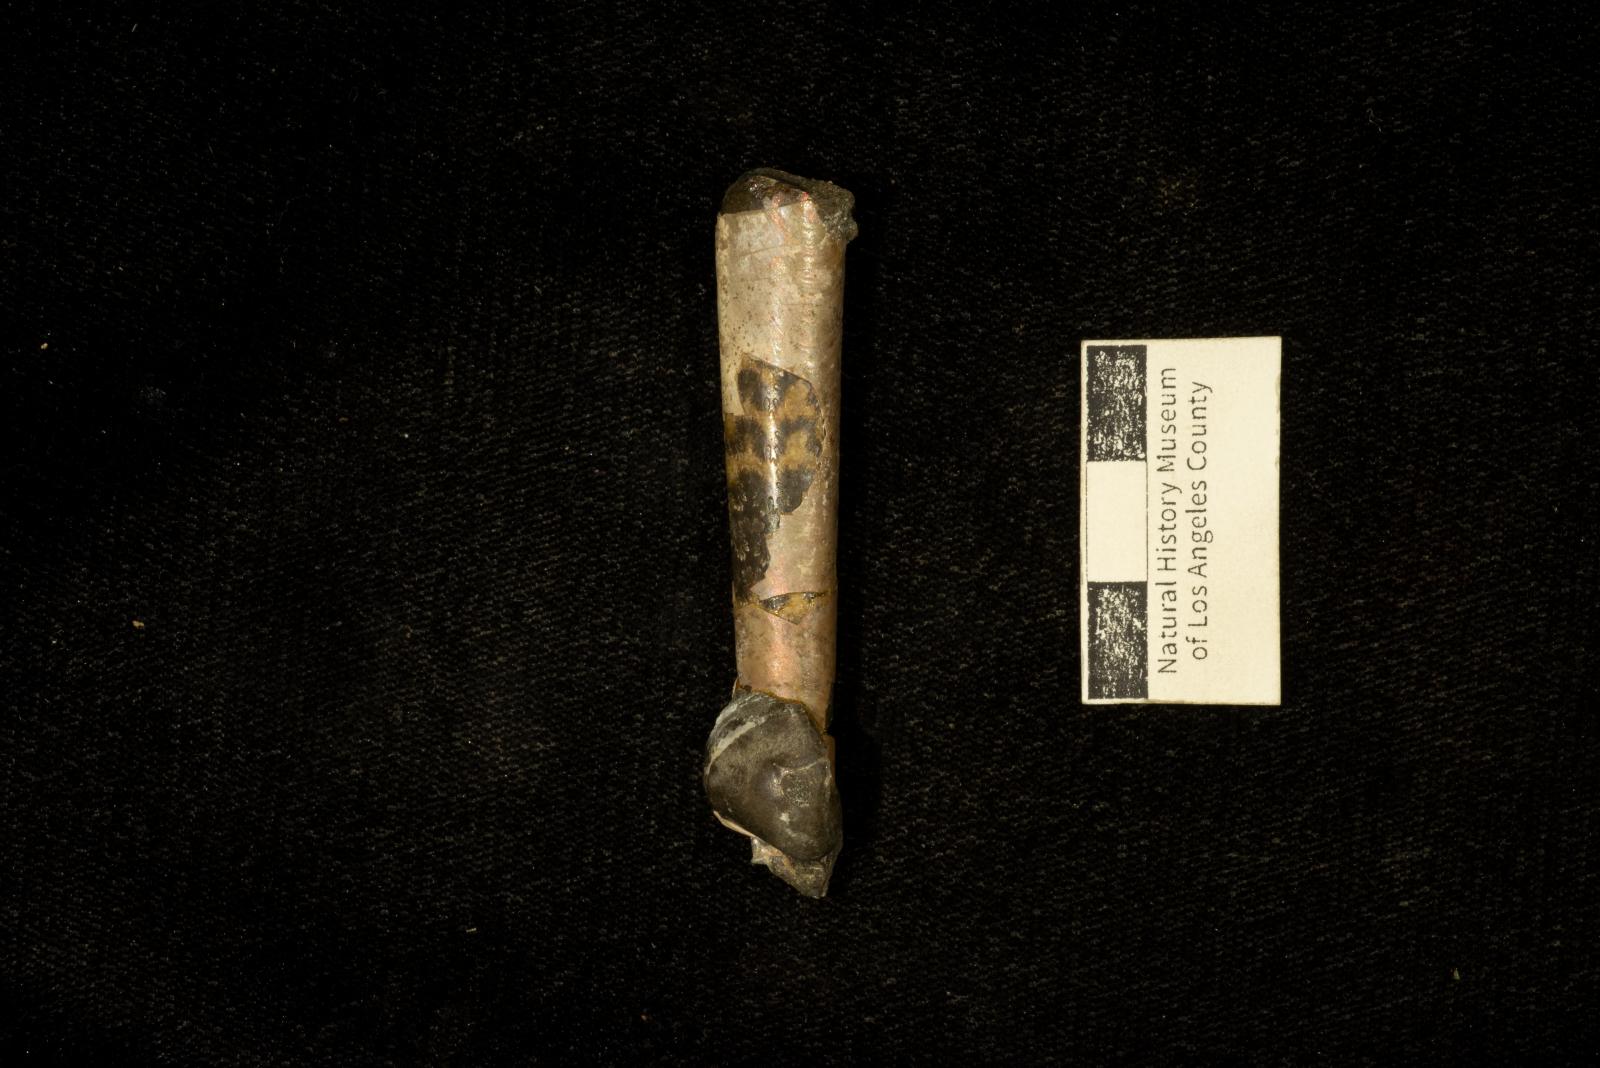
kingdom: Animalia
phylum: Mollusca
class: Cephalopoda
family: Baculitidae
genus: Baculites
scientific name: Baculites chicoensis
